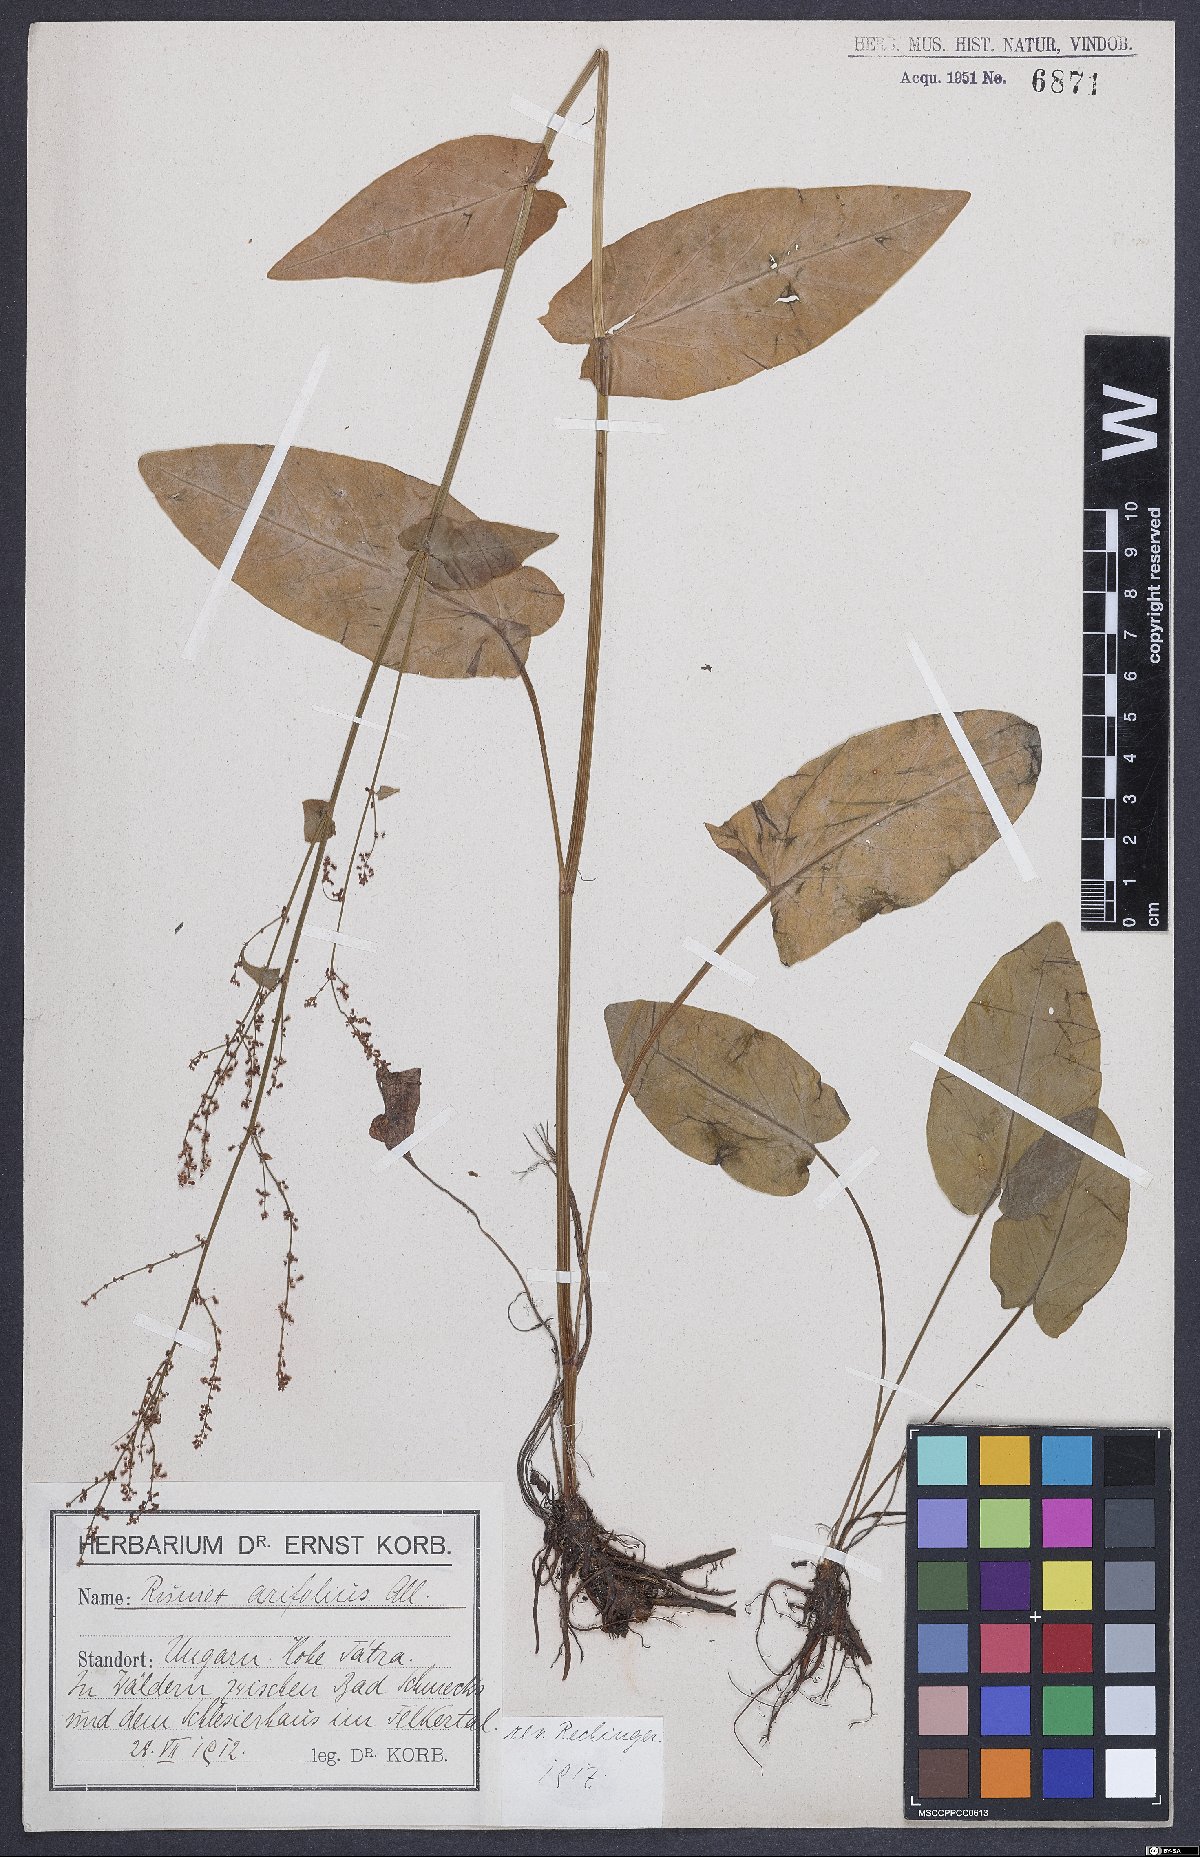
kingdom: Plantae
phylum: Tracheophyta
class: Magnoliopsida
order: Caryophyllales
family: Polygonaceae
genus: Rumex
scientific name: Rumex arifolius
